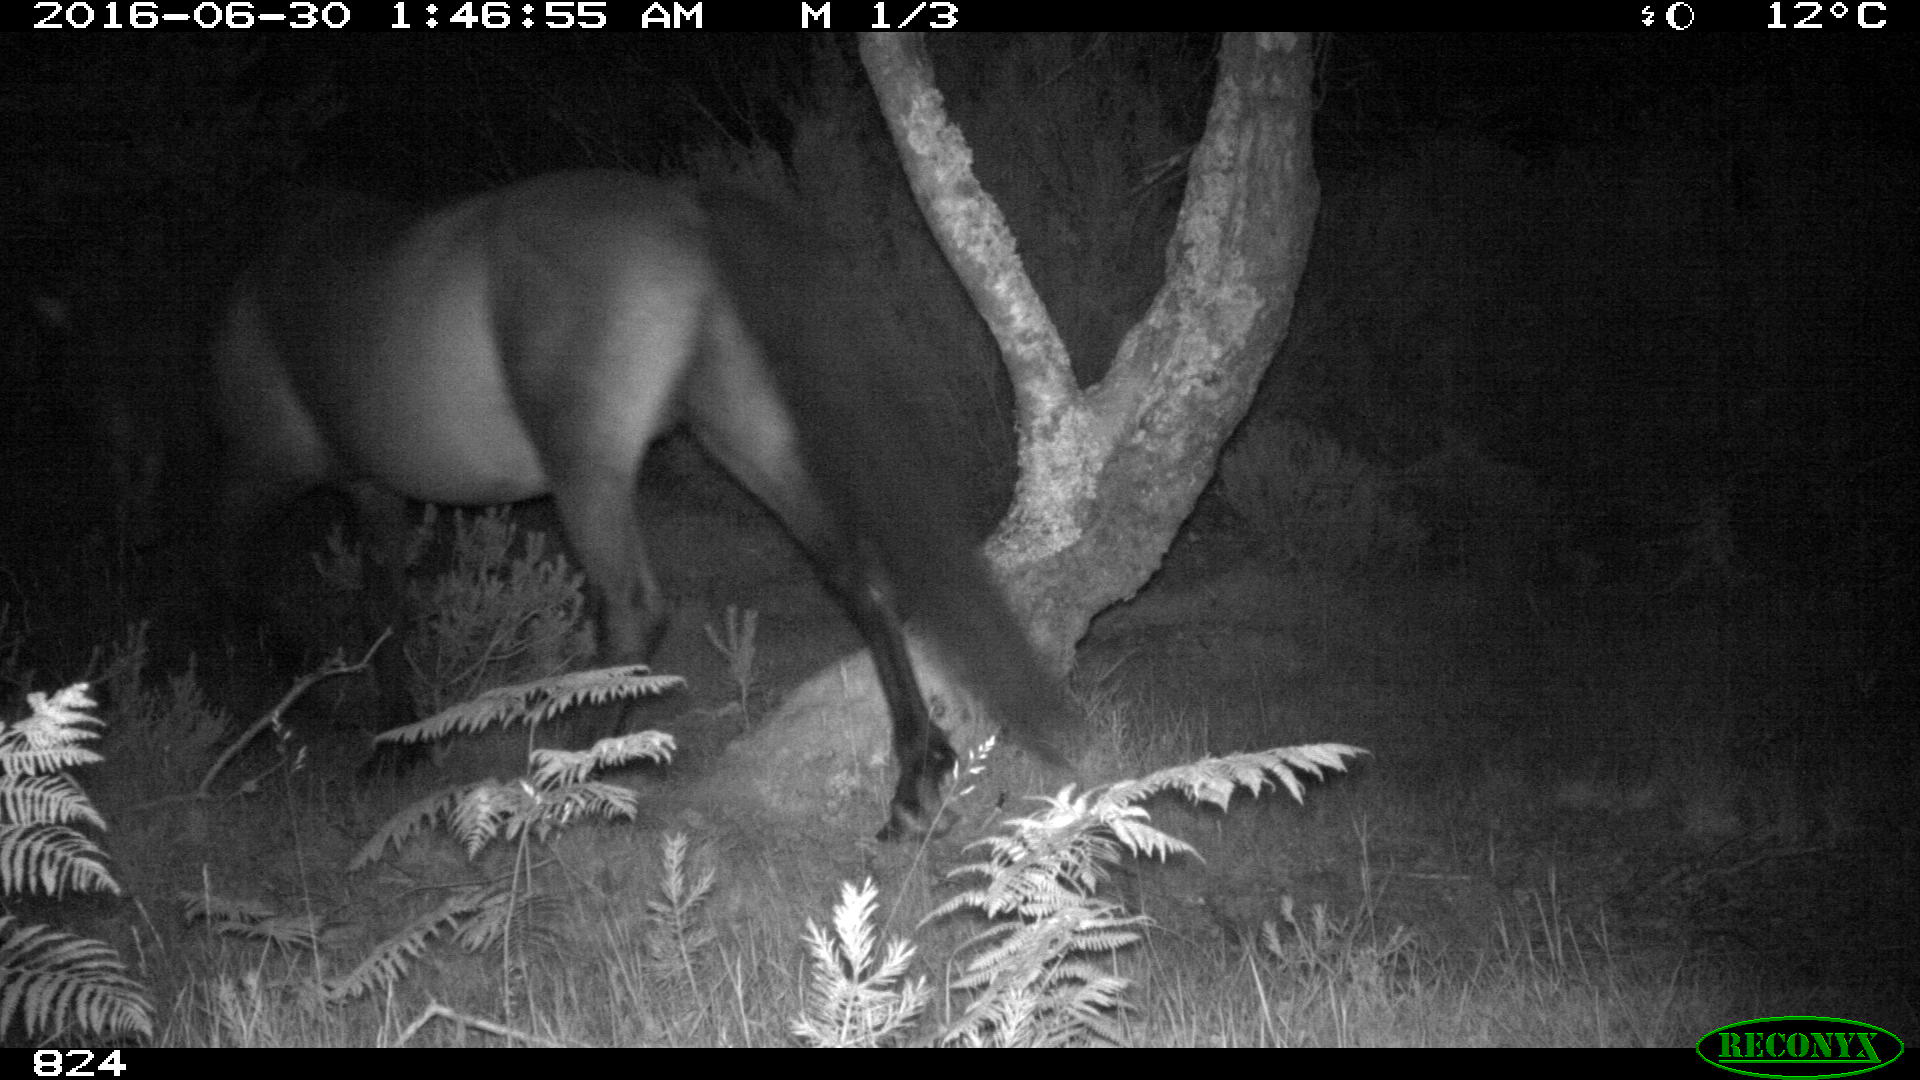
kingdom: Animalia
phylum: Chordata
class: Mammalia
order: Perissodactyla
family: Equidae
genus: Equus
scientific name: Equus caballus
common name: Horse
